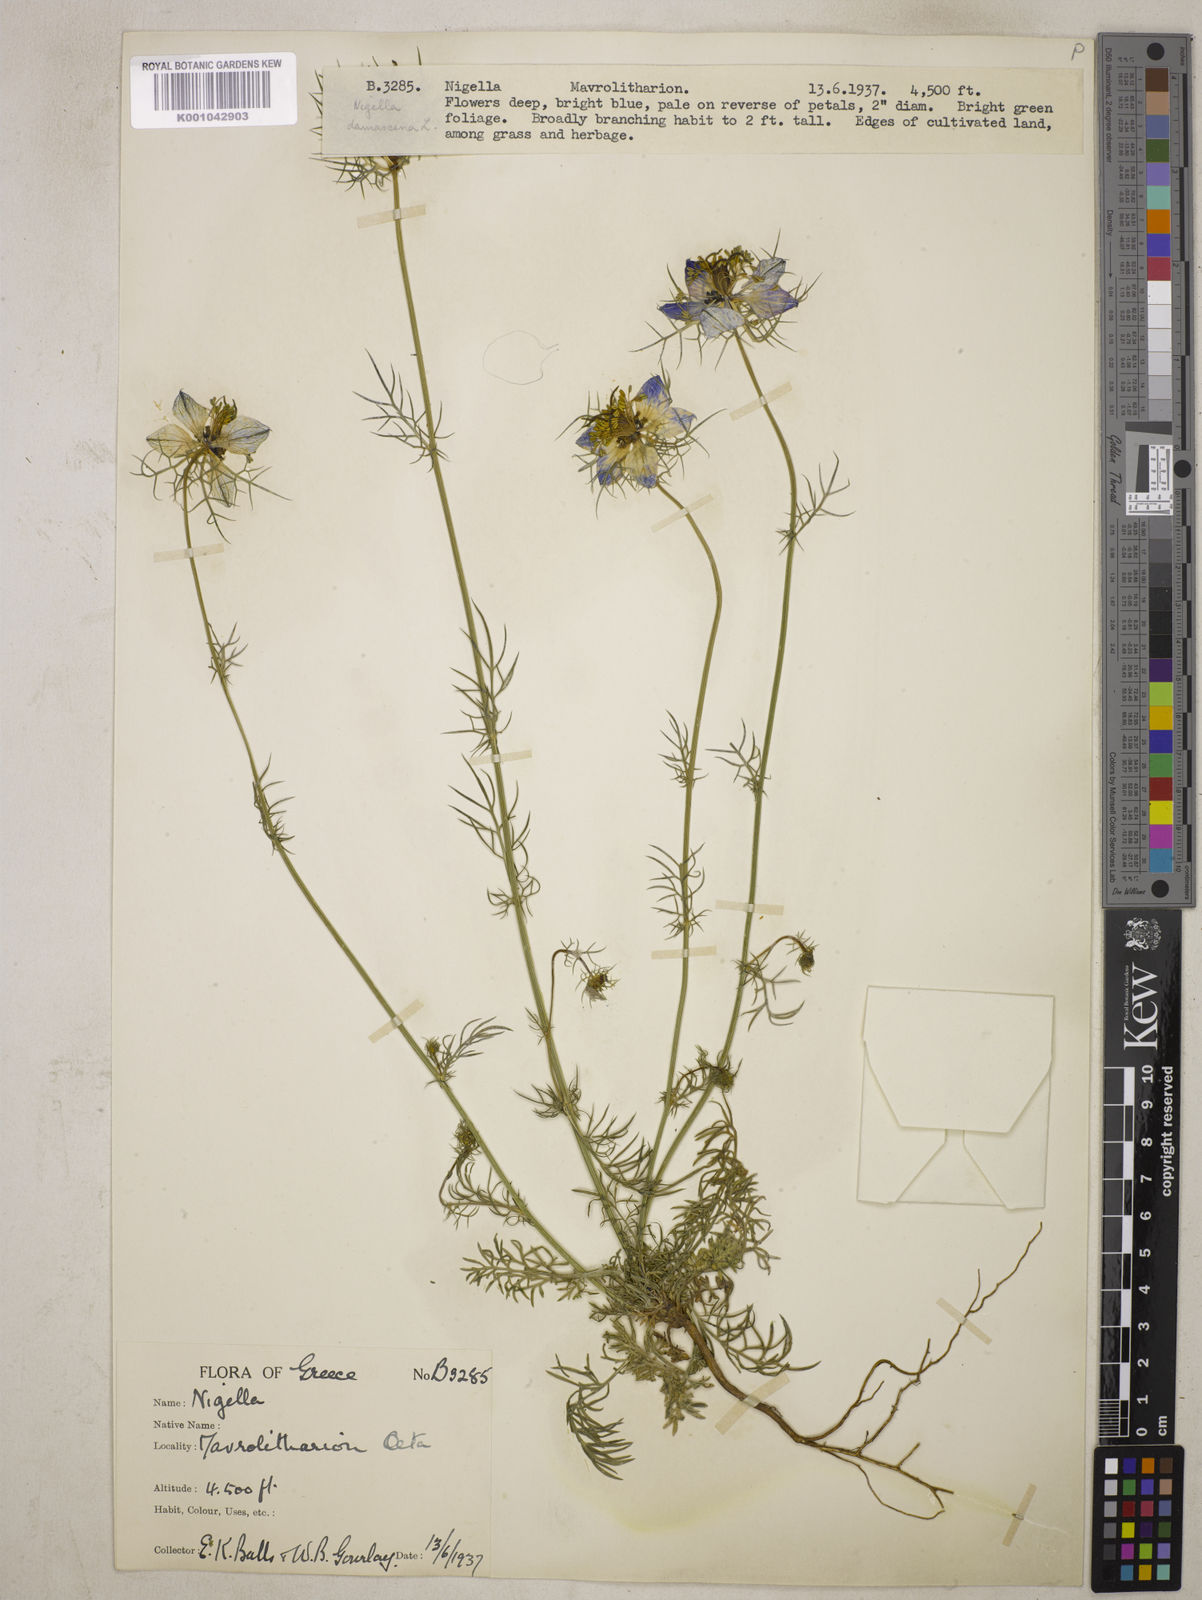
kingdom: Plantae
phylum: Tracheophyta
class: Magnoliopsida
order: Ranunculales
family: Ranunculaceae
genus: Nigella
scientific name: Nigella damascena
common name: Love-in-a-mist
